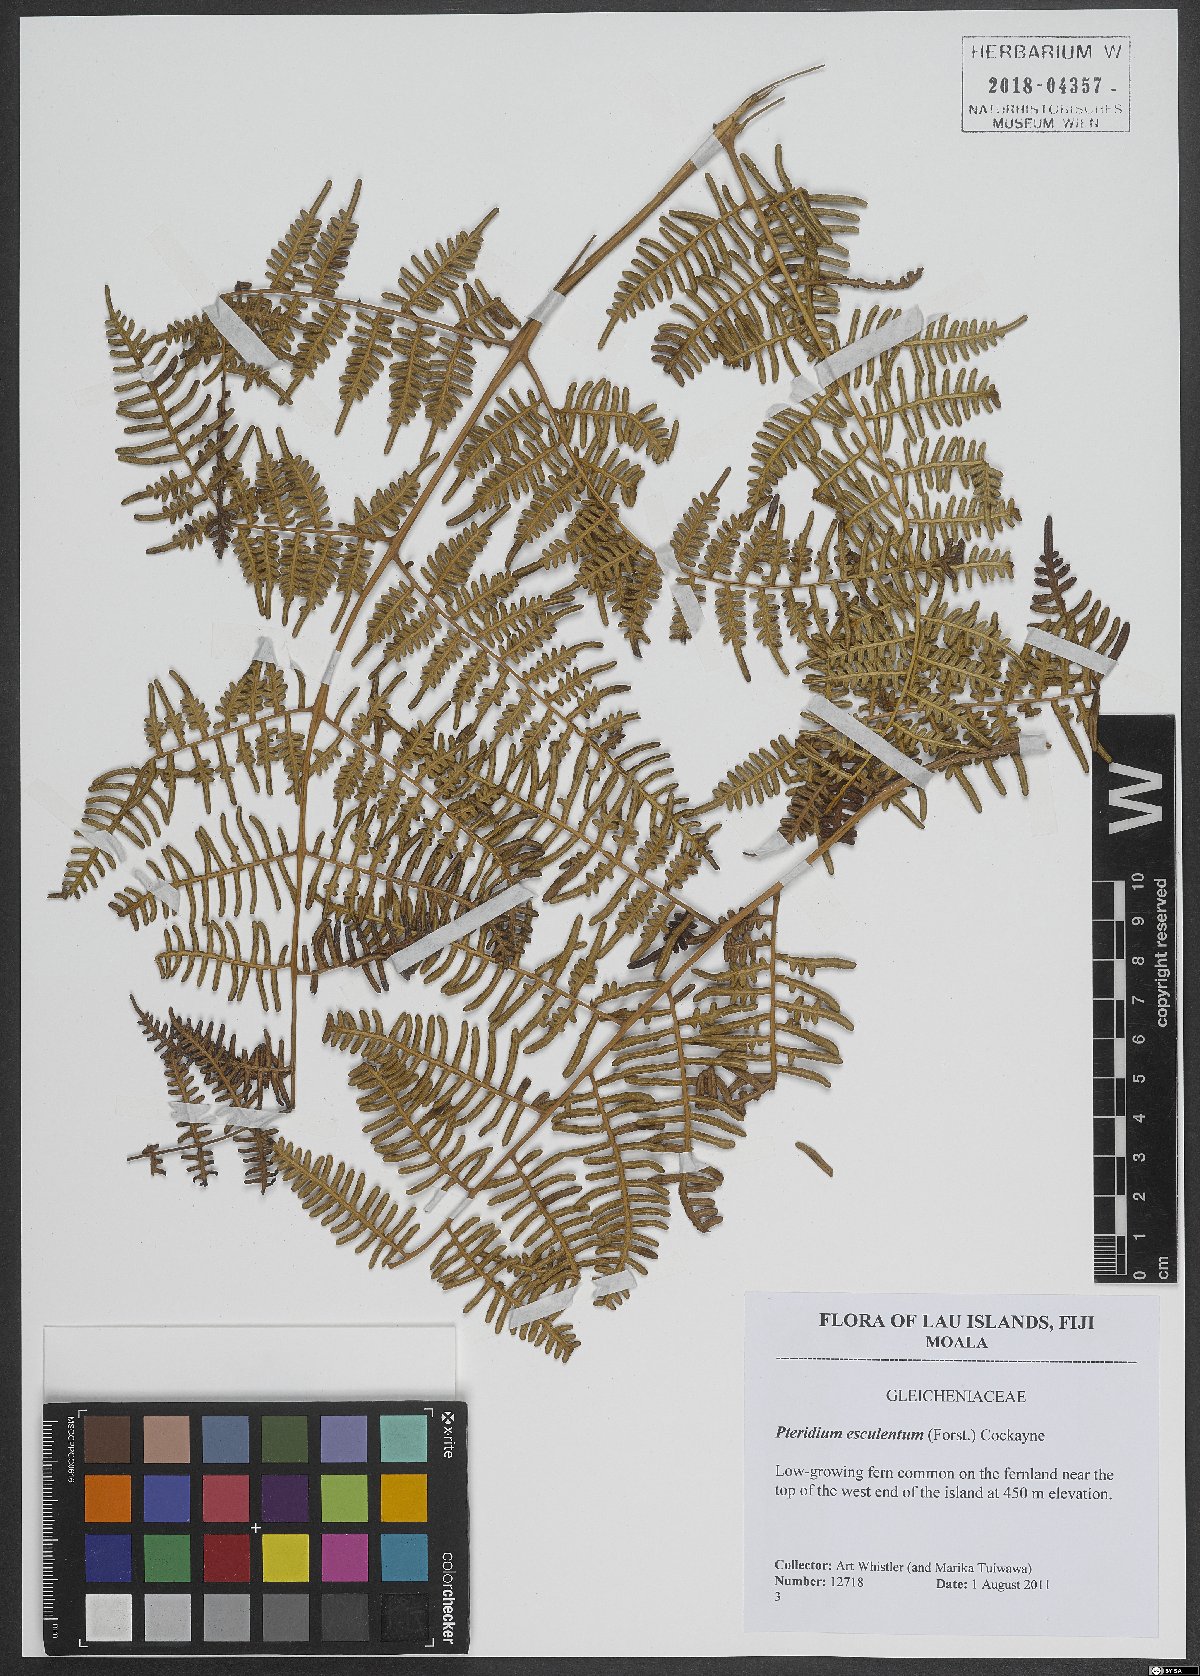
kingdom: Plantae
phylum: Tracheophyta
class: Polypodiopsida
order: Polypodiales
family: Dennstaedtiaceae
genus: Pteridium
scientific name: Pteridium esculentum
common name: Bracken fern
